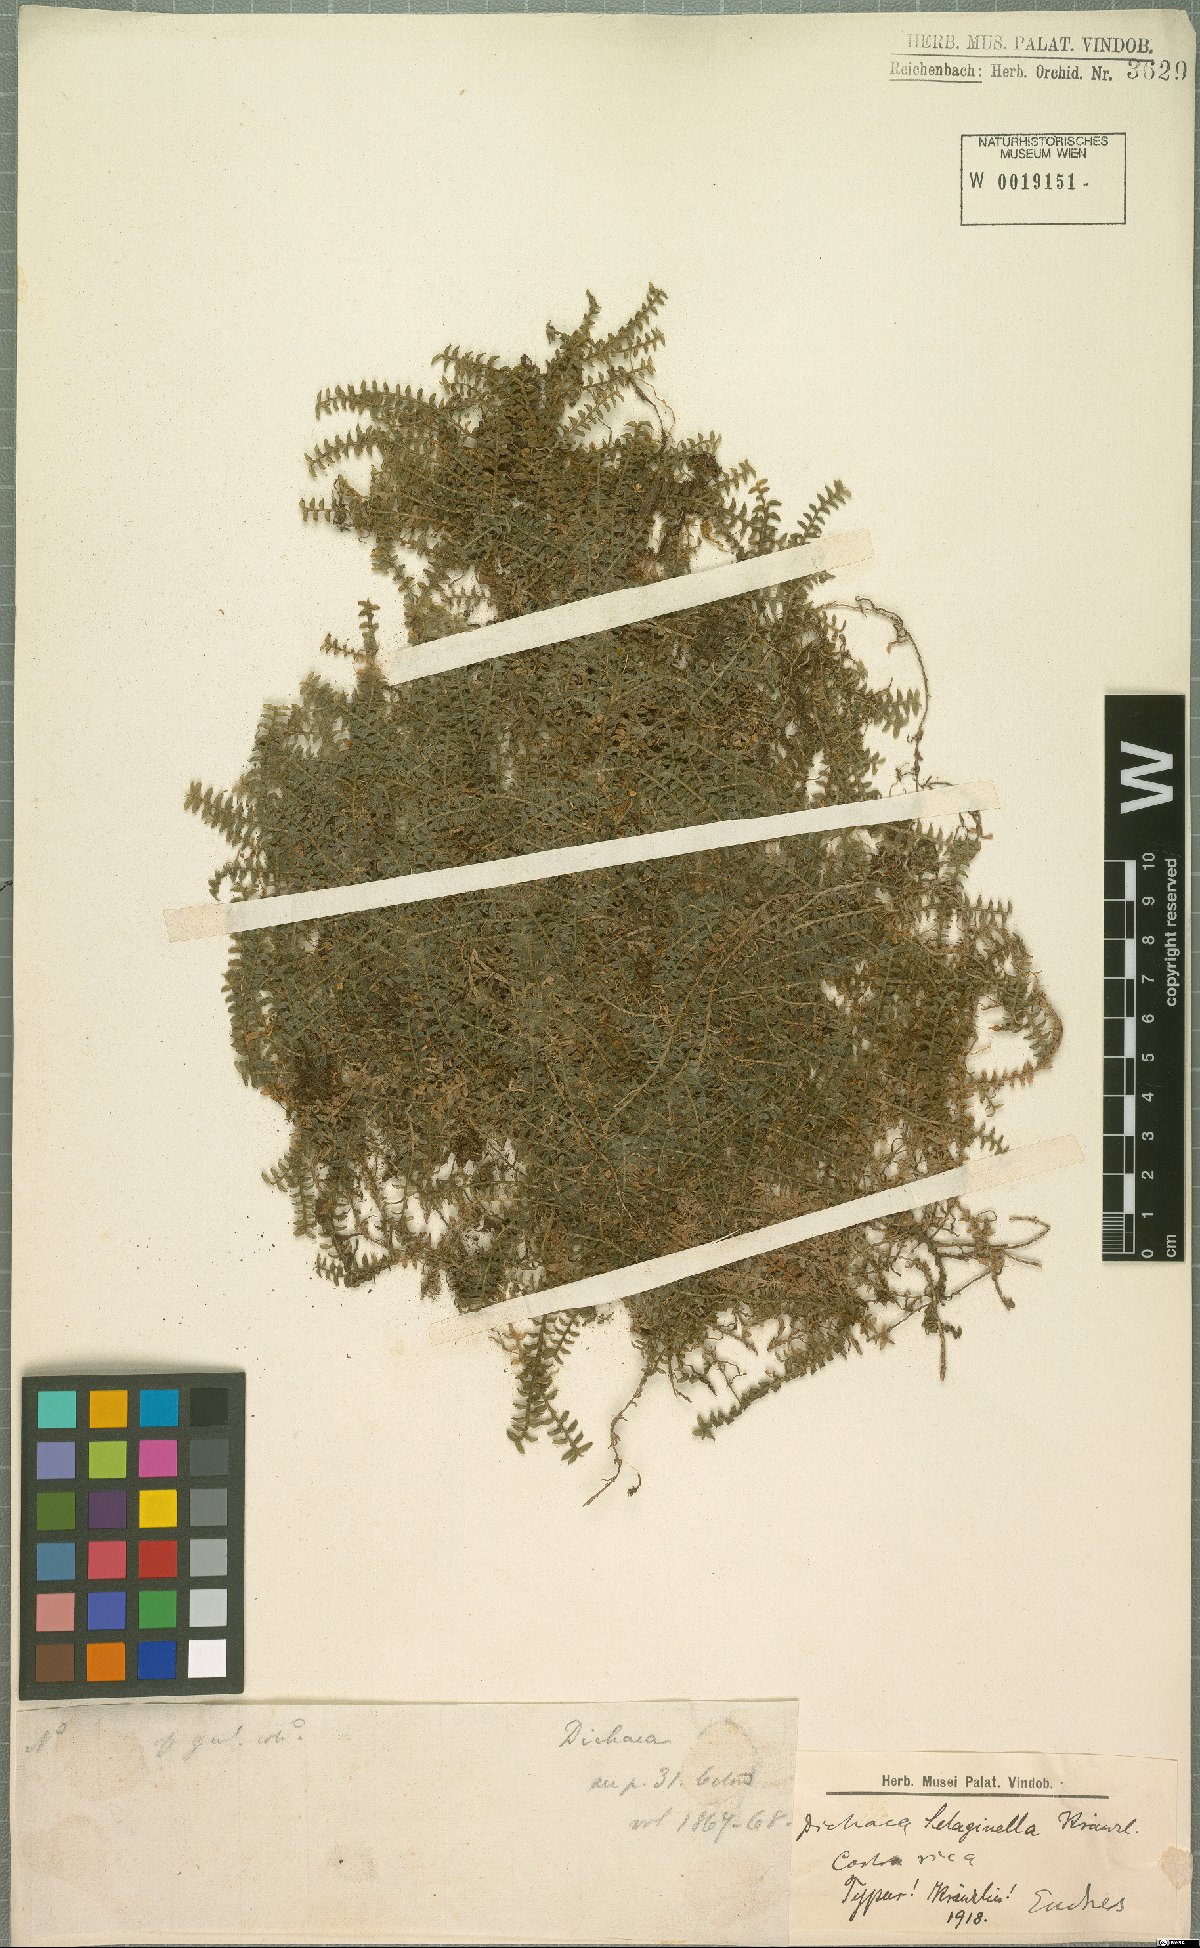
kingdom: Plantae
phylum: Tracheophyta
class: Liliopsida
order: Asparagales
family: Orchidaceae
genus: Dichaea
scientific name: Dichaea selaginella
